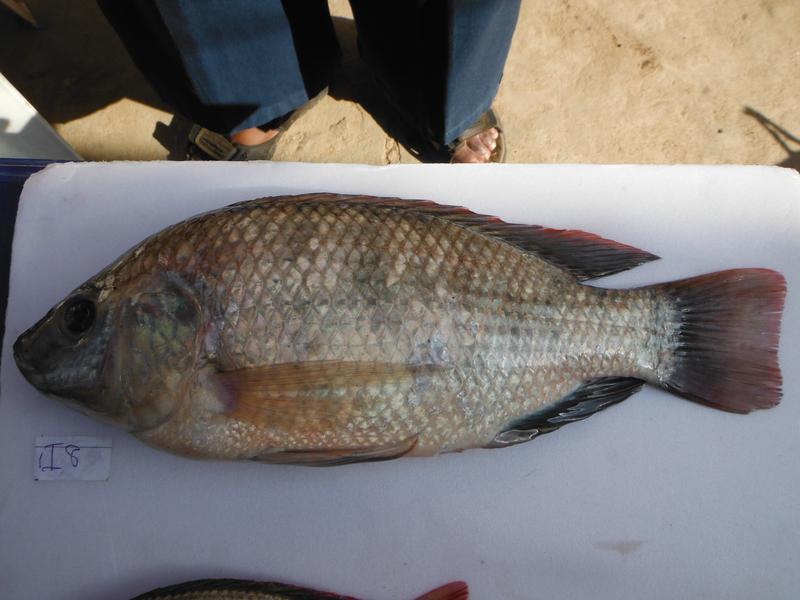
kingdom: Animalia
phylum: Chordata
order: Perciformes
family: Cichlidae
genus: Oreochromis
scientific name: Oreochromis rukwaensis
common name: Lake rukwa tilapia
